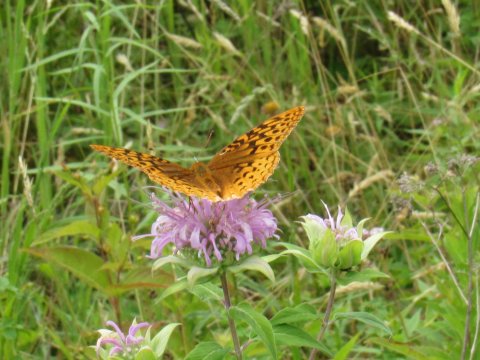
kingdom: Animalia
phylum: Arthropoda
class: Insecta
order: Lepidoptera
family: Nymphalidae
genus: Speyeria
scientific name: Speyeria cybele
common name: Great Spangled Fritillary
